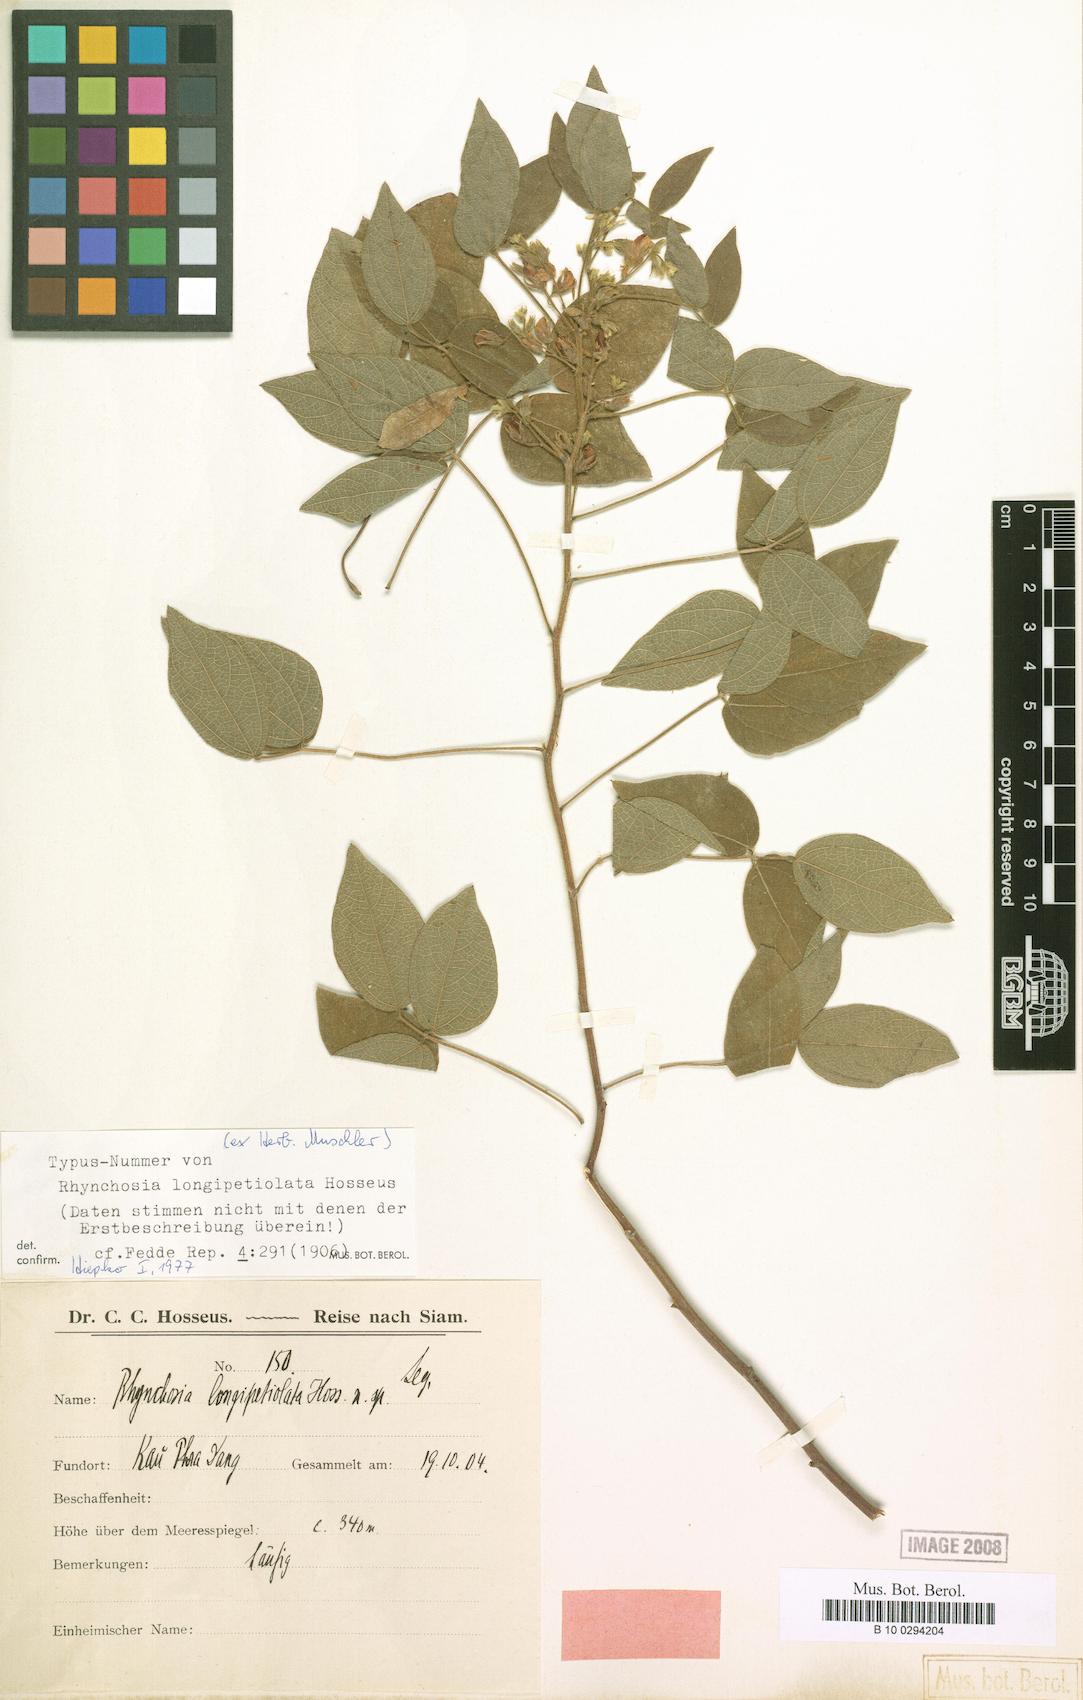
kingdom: Plantae
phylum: Tracheophyta
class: Magnoliopsida
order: Fabales
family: Fabaceae
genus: Rhynchosia
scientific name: Rhynchosia longipetiolata
